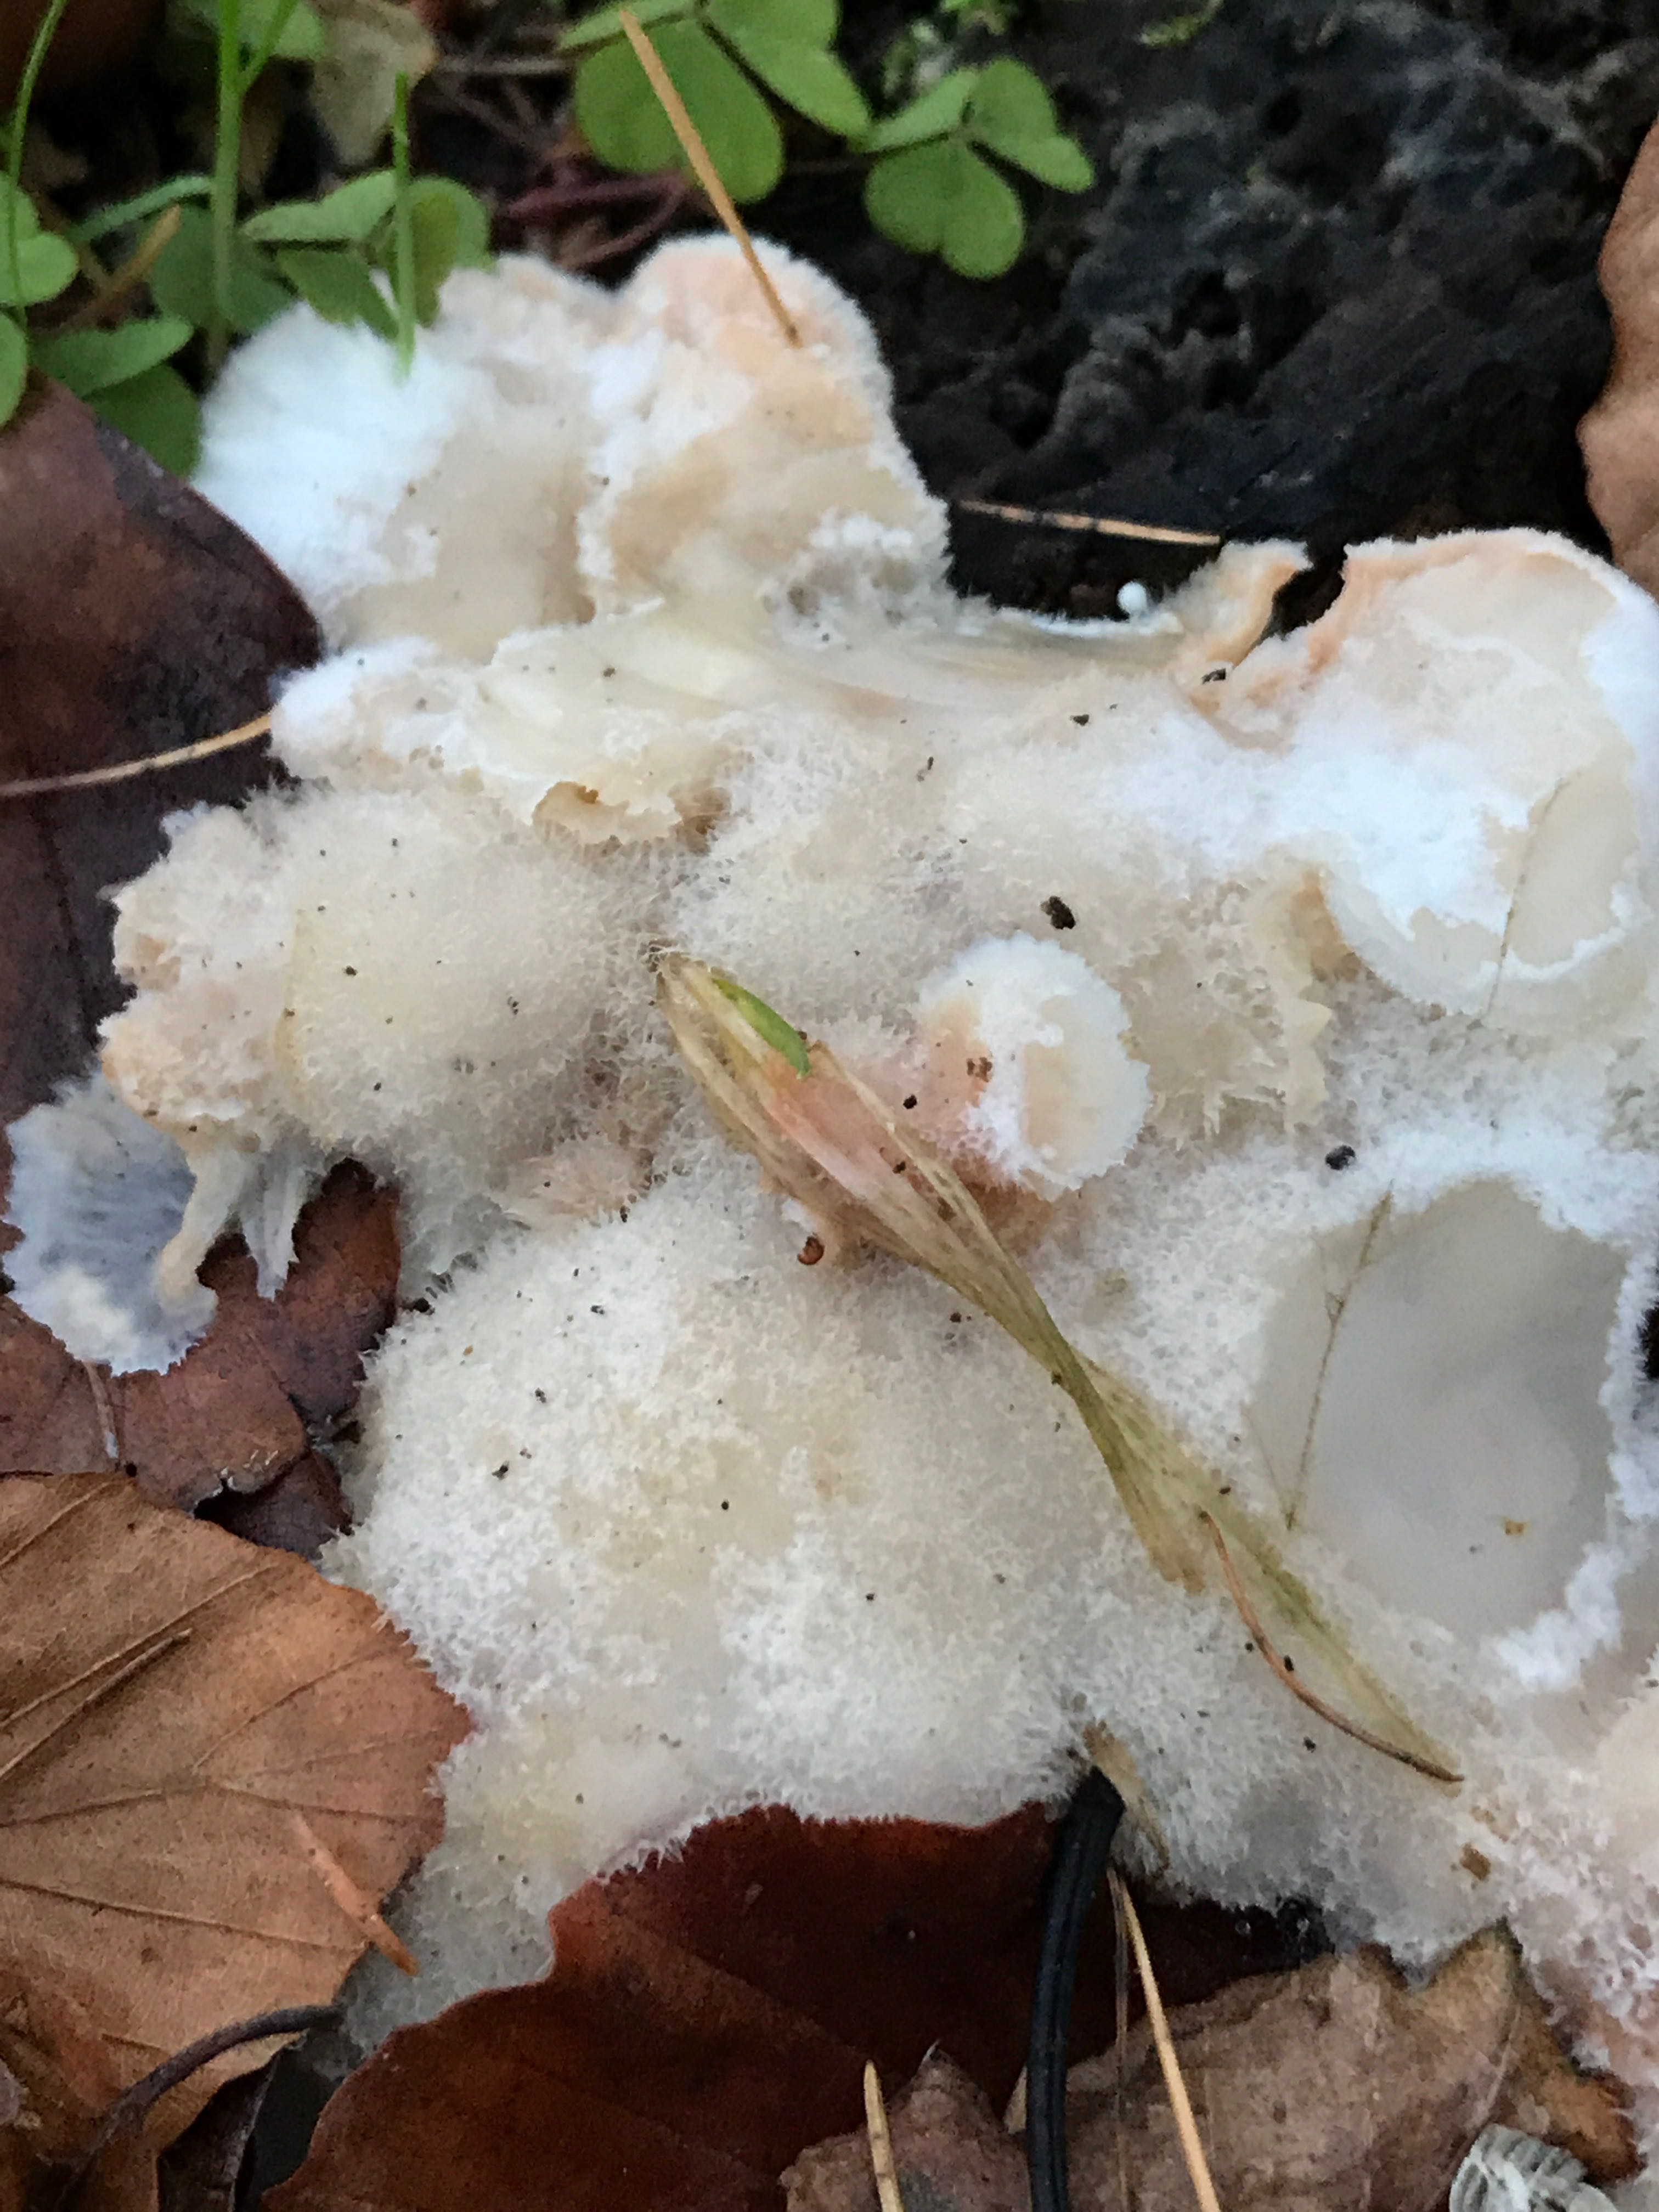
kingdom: Fungi
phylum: Basidiomycota
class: Agaricomycetes
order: Polyporales
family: Meruliaceae
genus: Phlebia
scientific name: Phlebia tremellosa
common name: bævrende åresvamp
